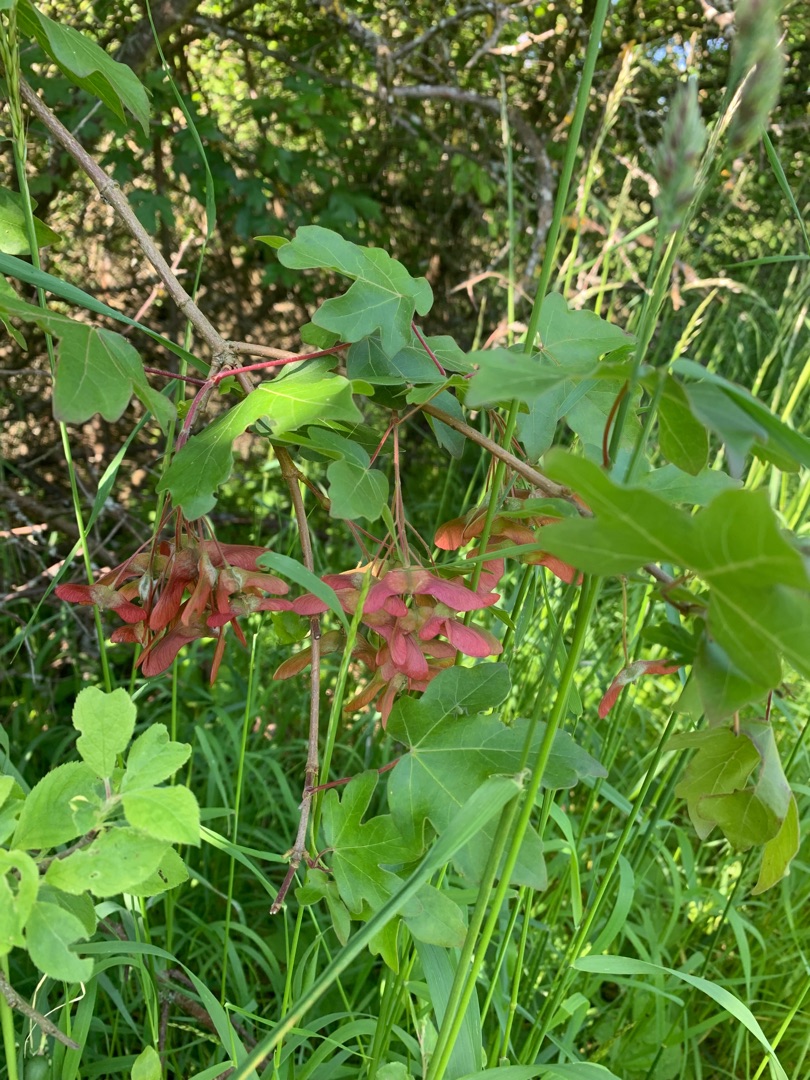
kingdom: Plantae
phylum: Tracheophyta
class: Magnoliopsida
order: Sapindales
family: Sapindaceae
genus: Acer
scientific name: Acer campestre
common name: Navr
